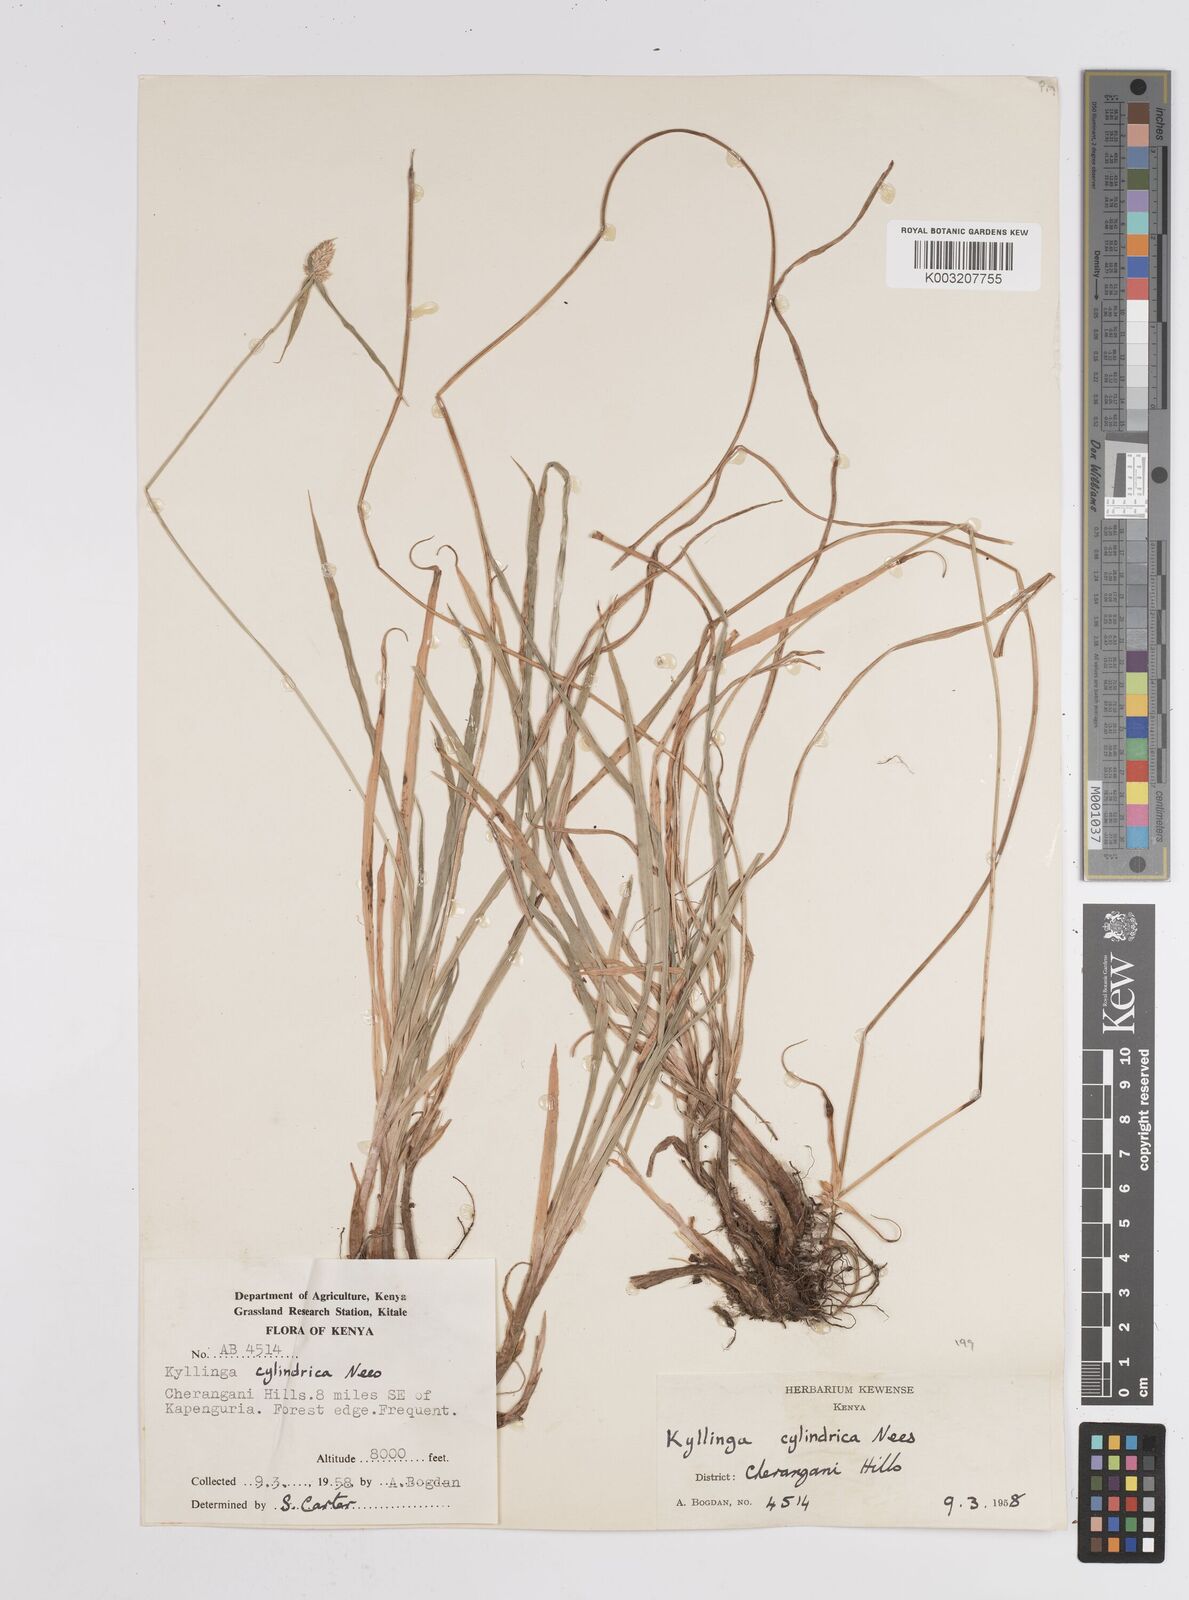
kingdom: Plantae
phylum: Tracheophyta
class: Liliopsida
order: Poales
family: Cyperaceae
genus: Cyperus
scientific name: Cyperus
